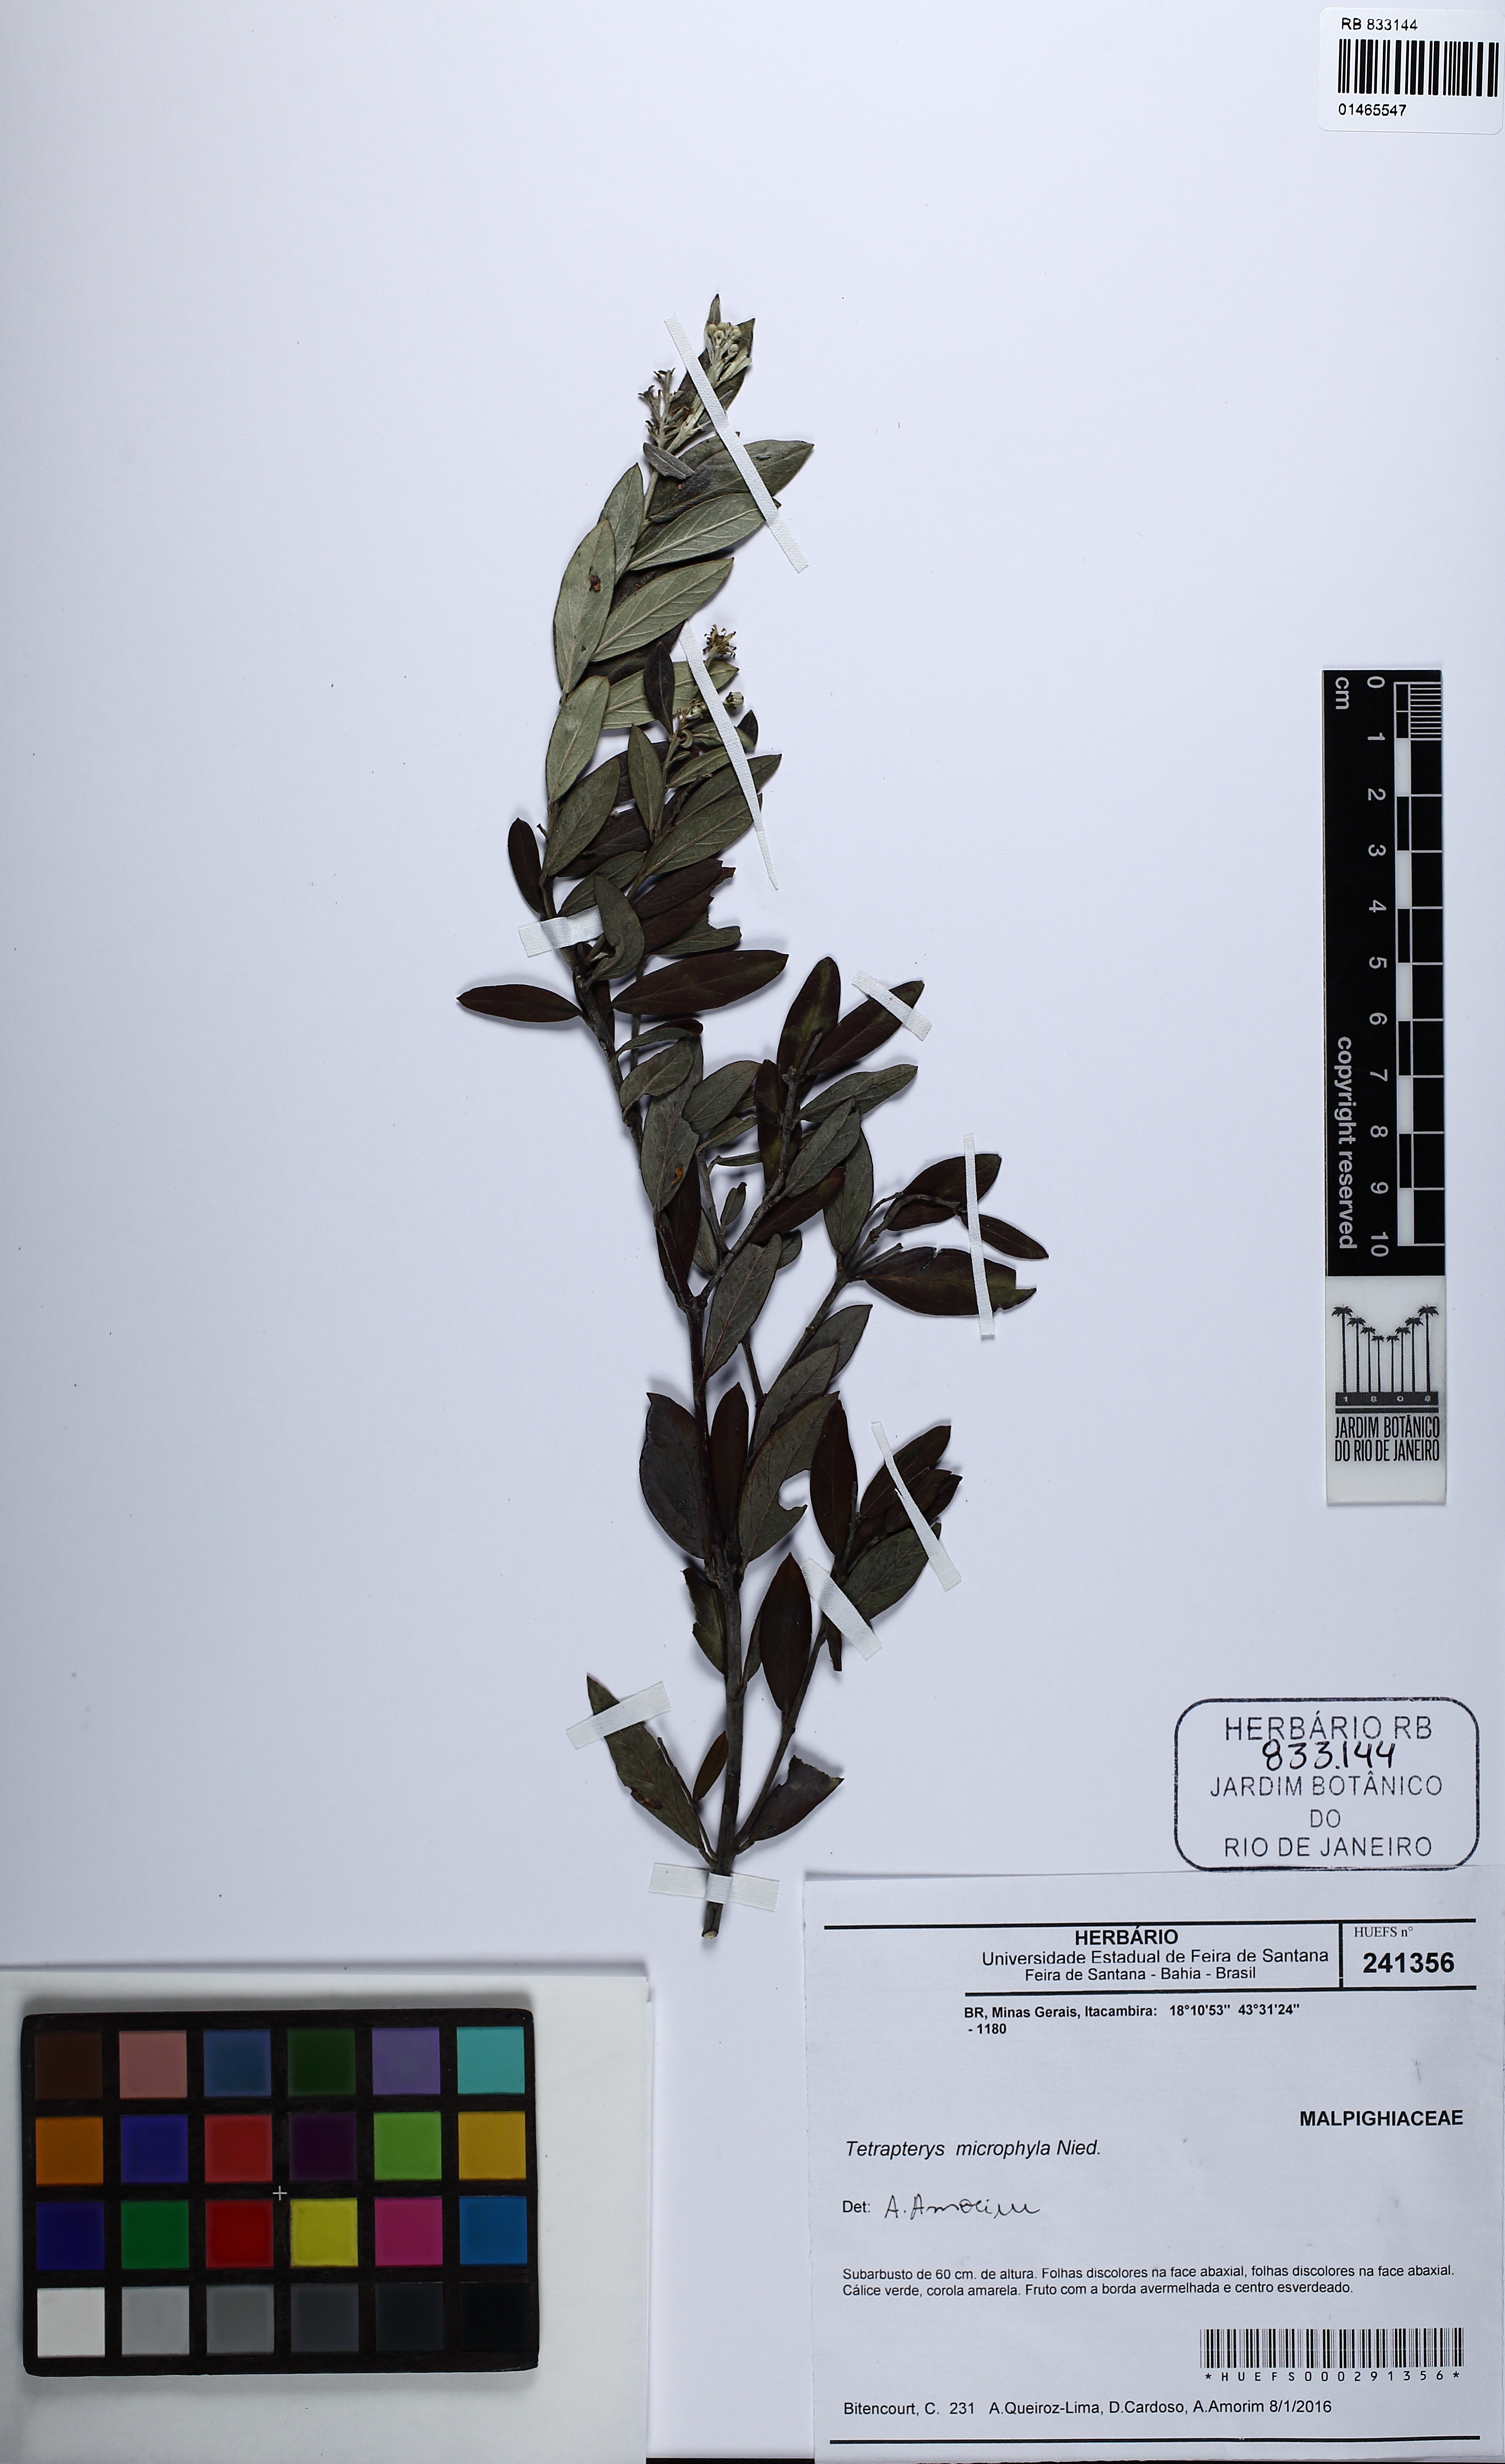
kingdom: Plantae
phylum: Tracheophyta
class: Magnoliopsida
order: Malpighiales
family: Malpighiaceae
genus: Glicophyllum
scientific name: Glicophyllum microphyllum
